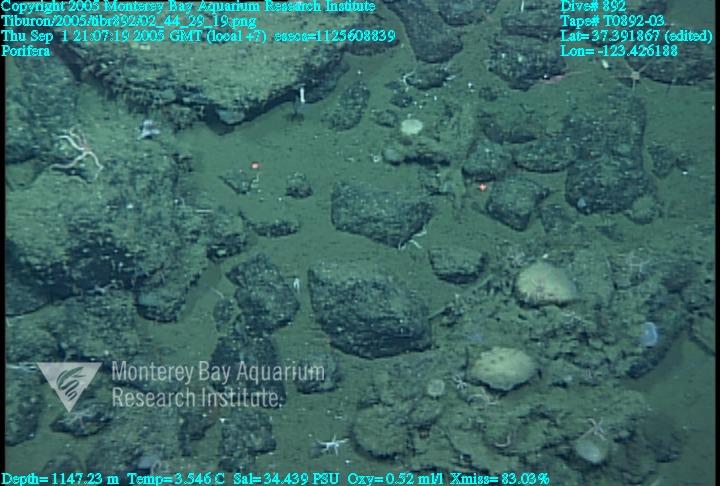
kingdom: Animalia
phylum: Porifera
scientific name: Porifera
